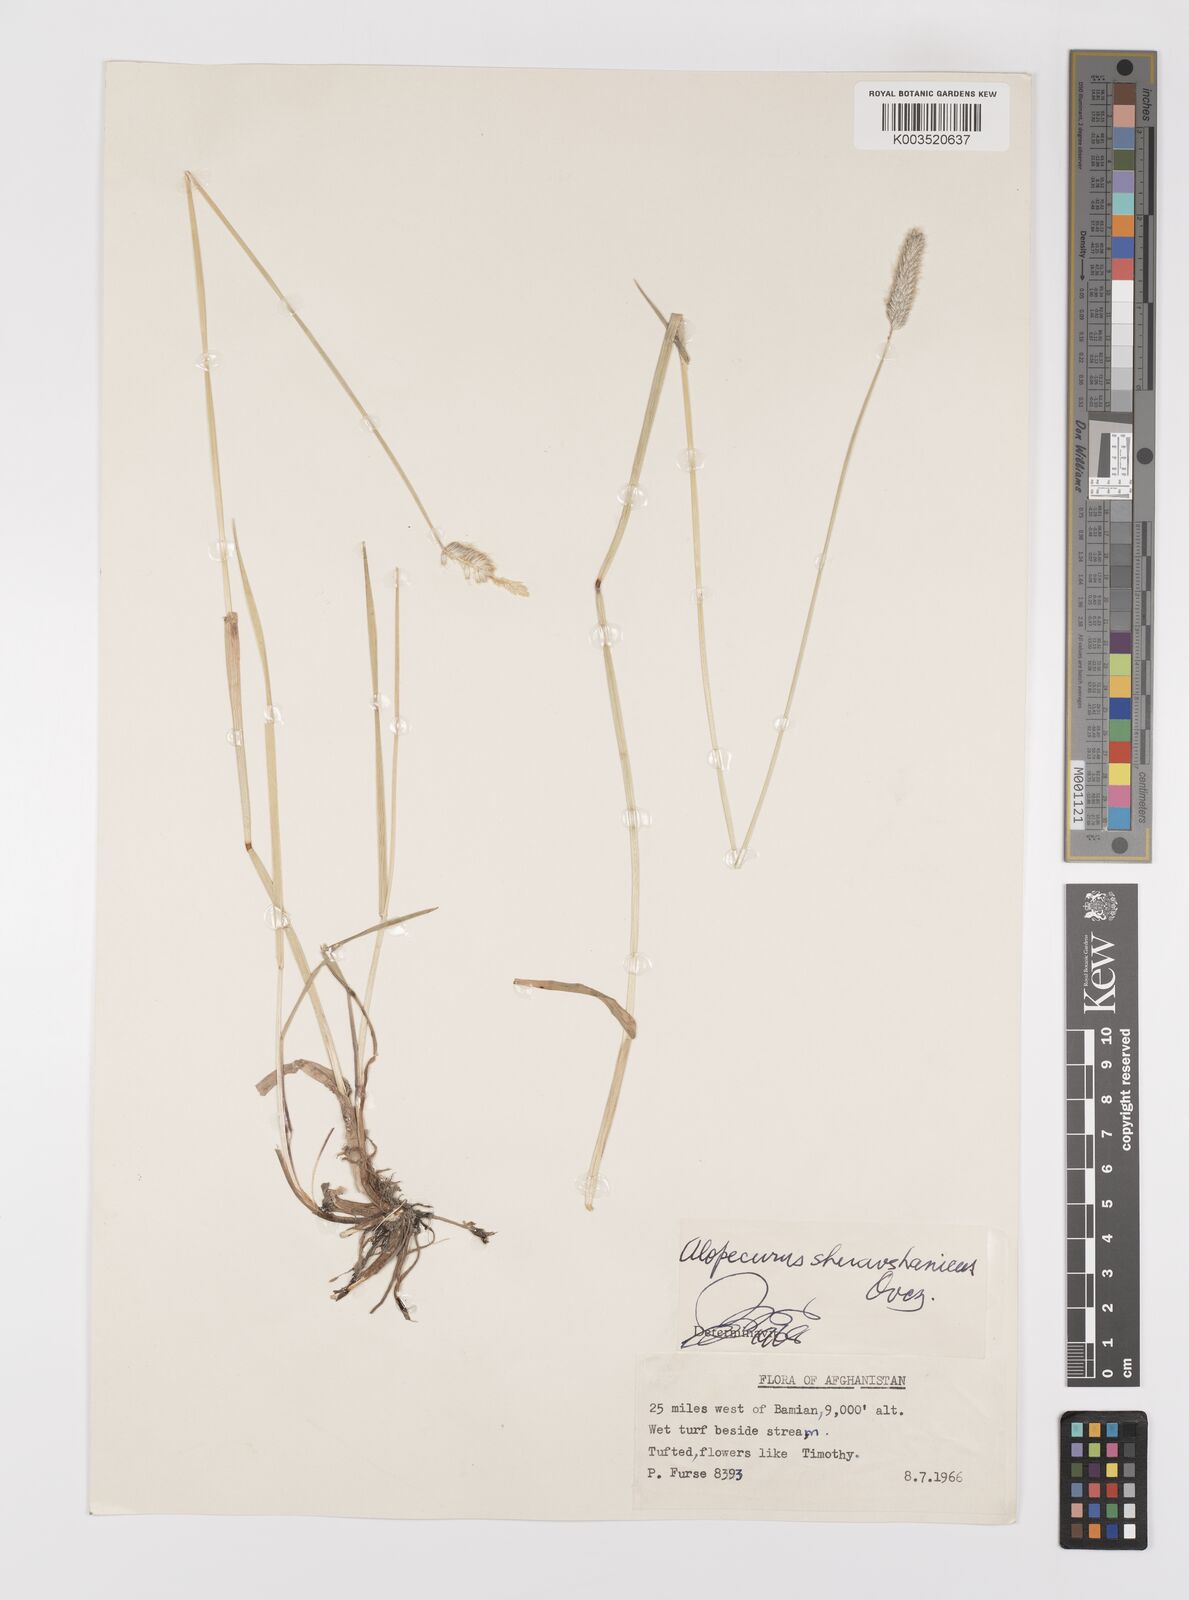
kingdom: Plantae
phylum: Tracheophyta
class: Liliopsida
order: Poales
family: Poaceae
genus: Alopecurus
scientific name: Alopecurus pratensis
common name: Meadow foxtail
